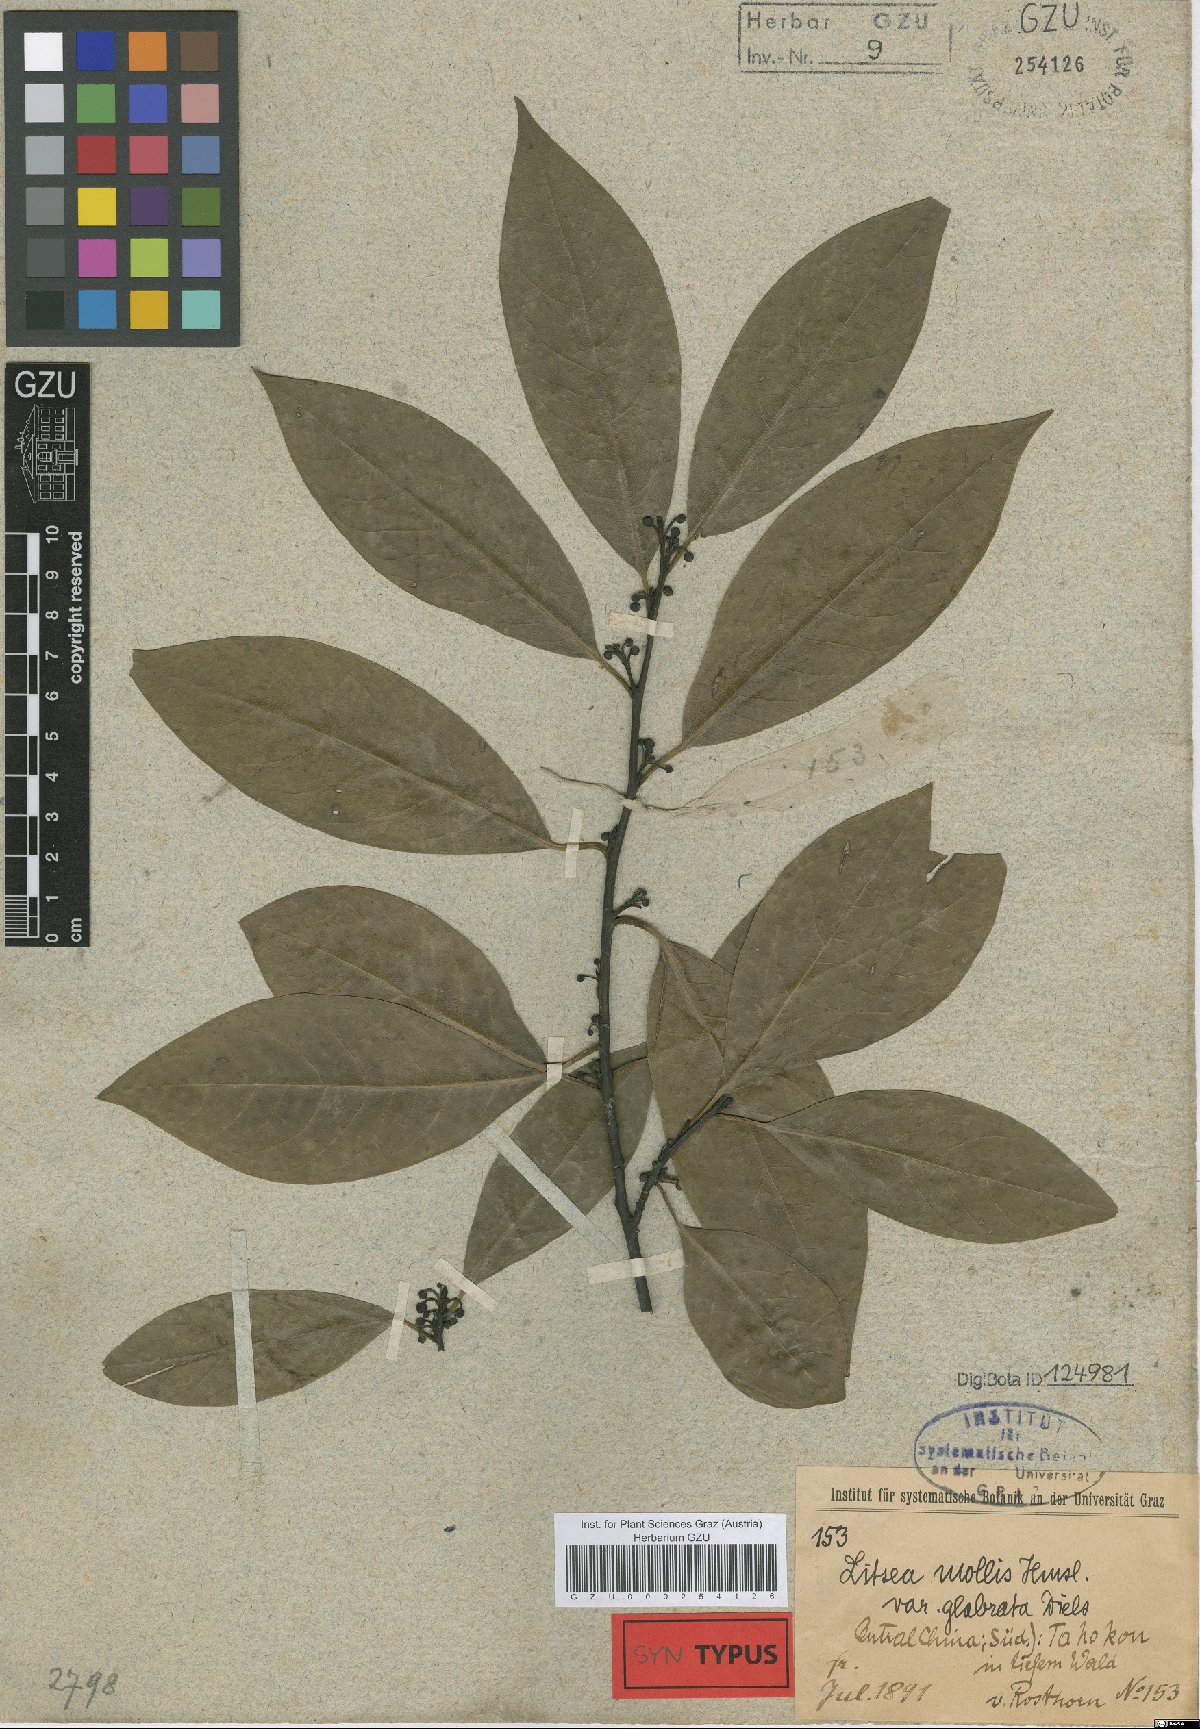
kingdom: Plantae
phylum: Tracheophyta
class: Magnoliopsida
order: Laurales
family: Lauraceae
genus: Litsea
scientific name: Litsea euosma
